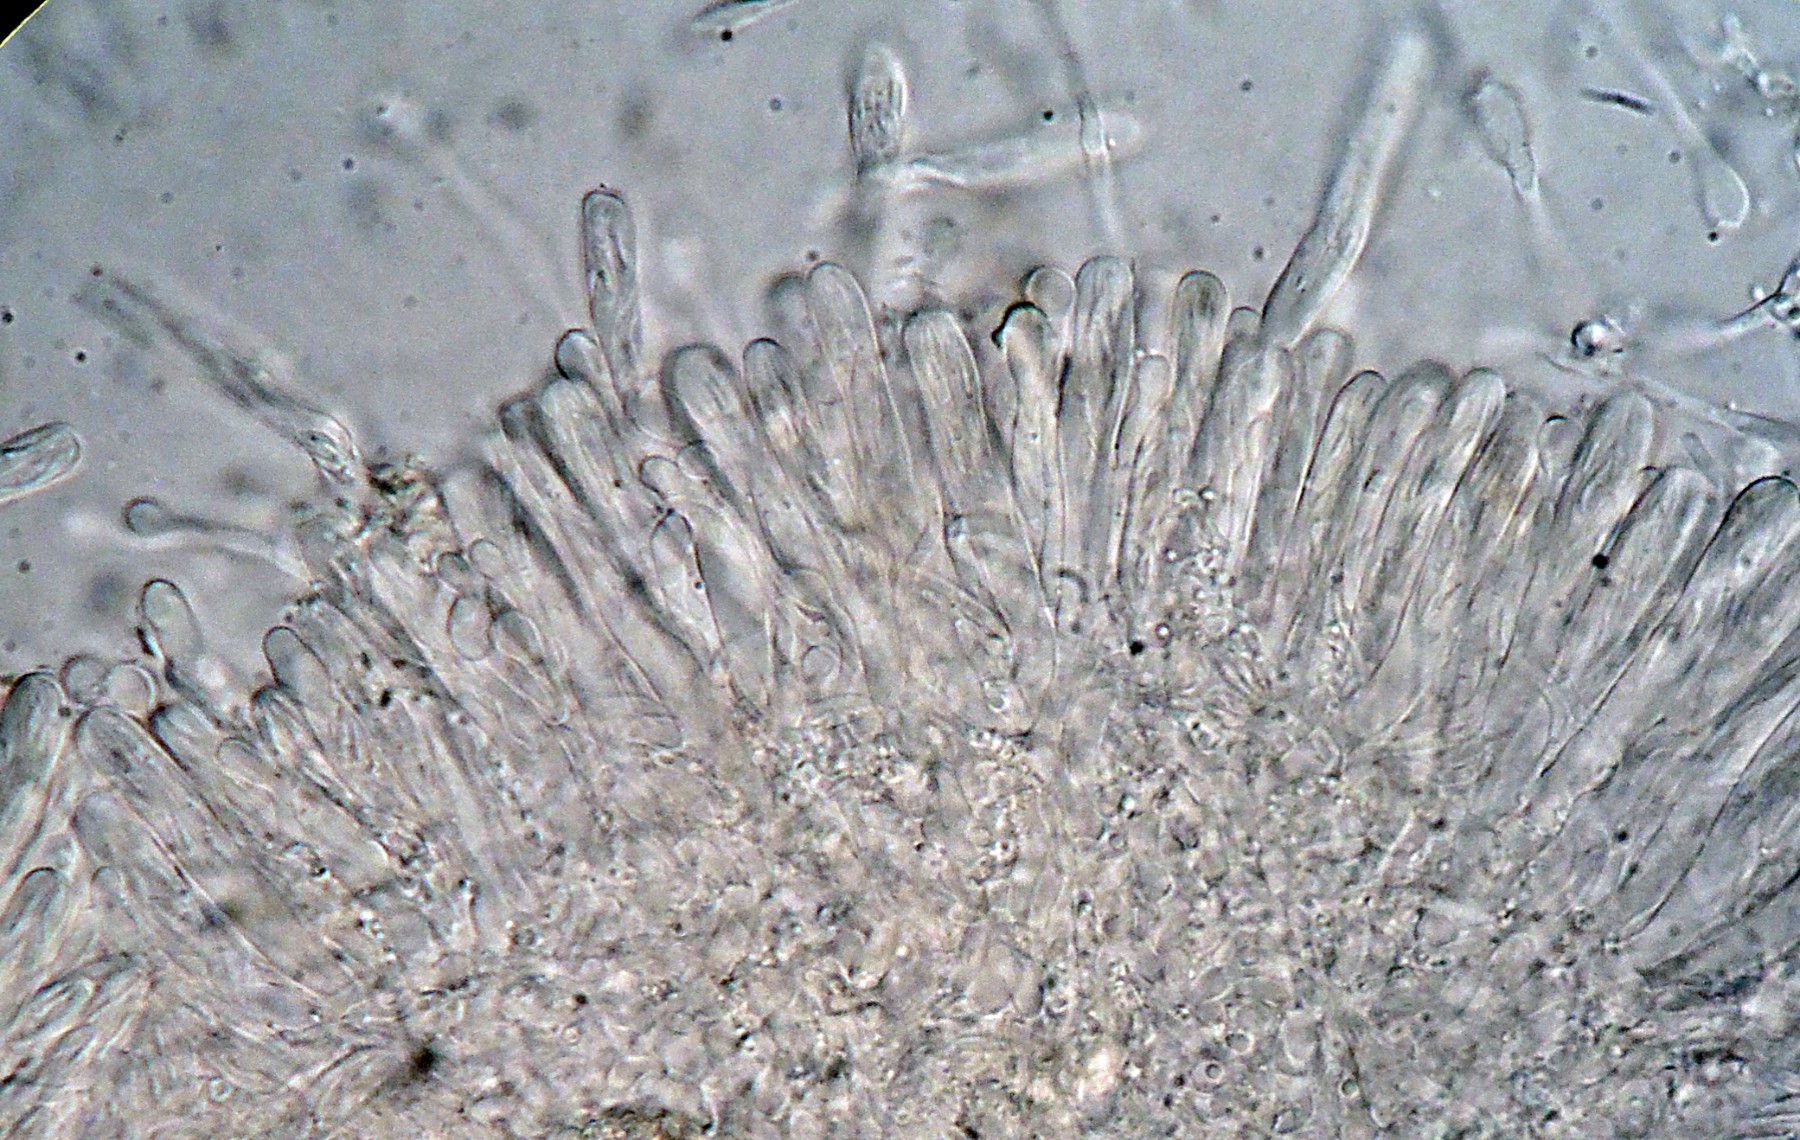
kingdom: Fungi
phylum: Ascomycota
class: Orbiliomycetes
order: Orbiliales
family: Orbiliaceae
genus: Orbilia
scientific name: Orbilia luteorubella
